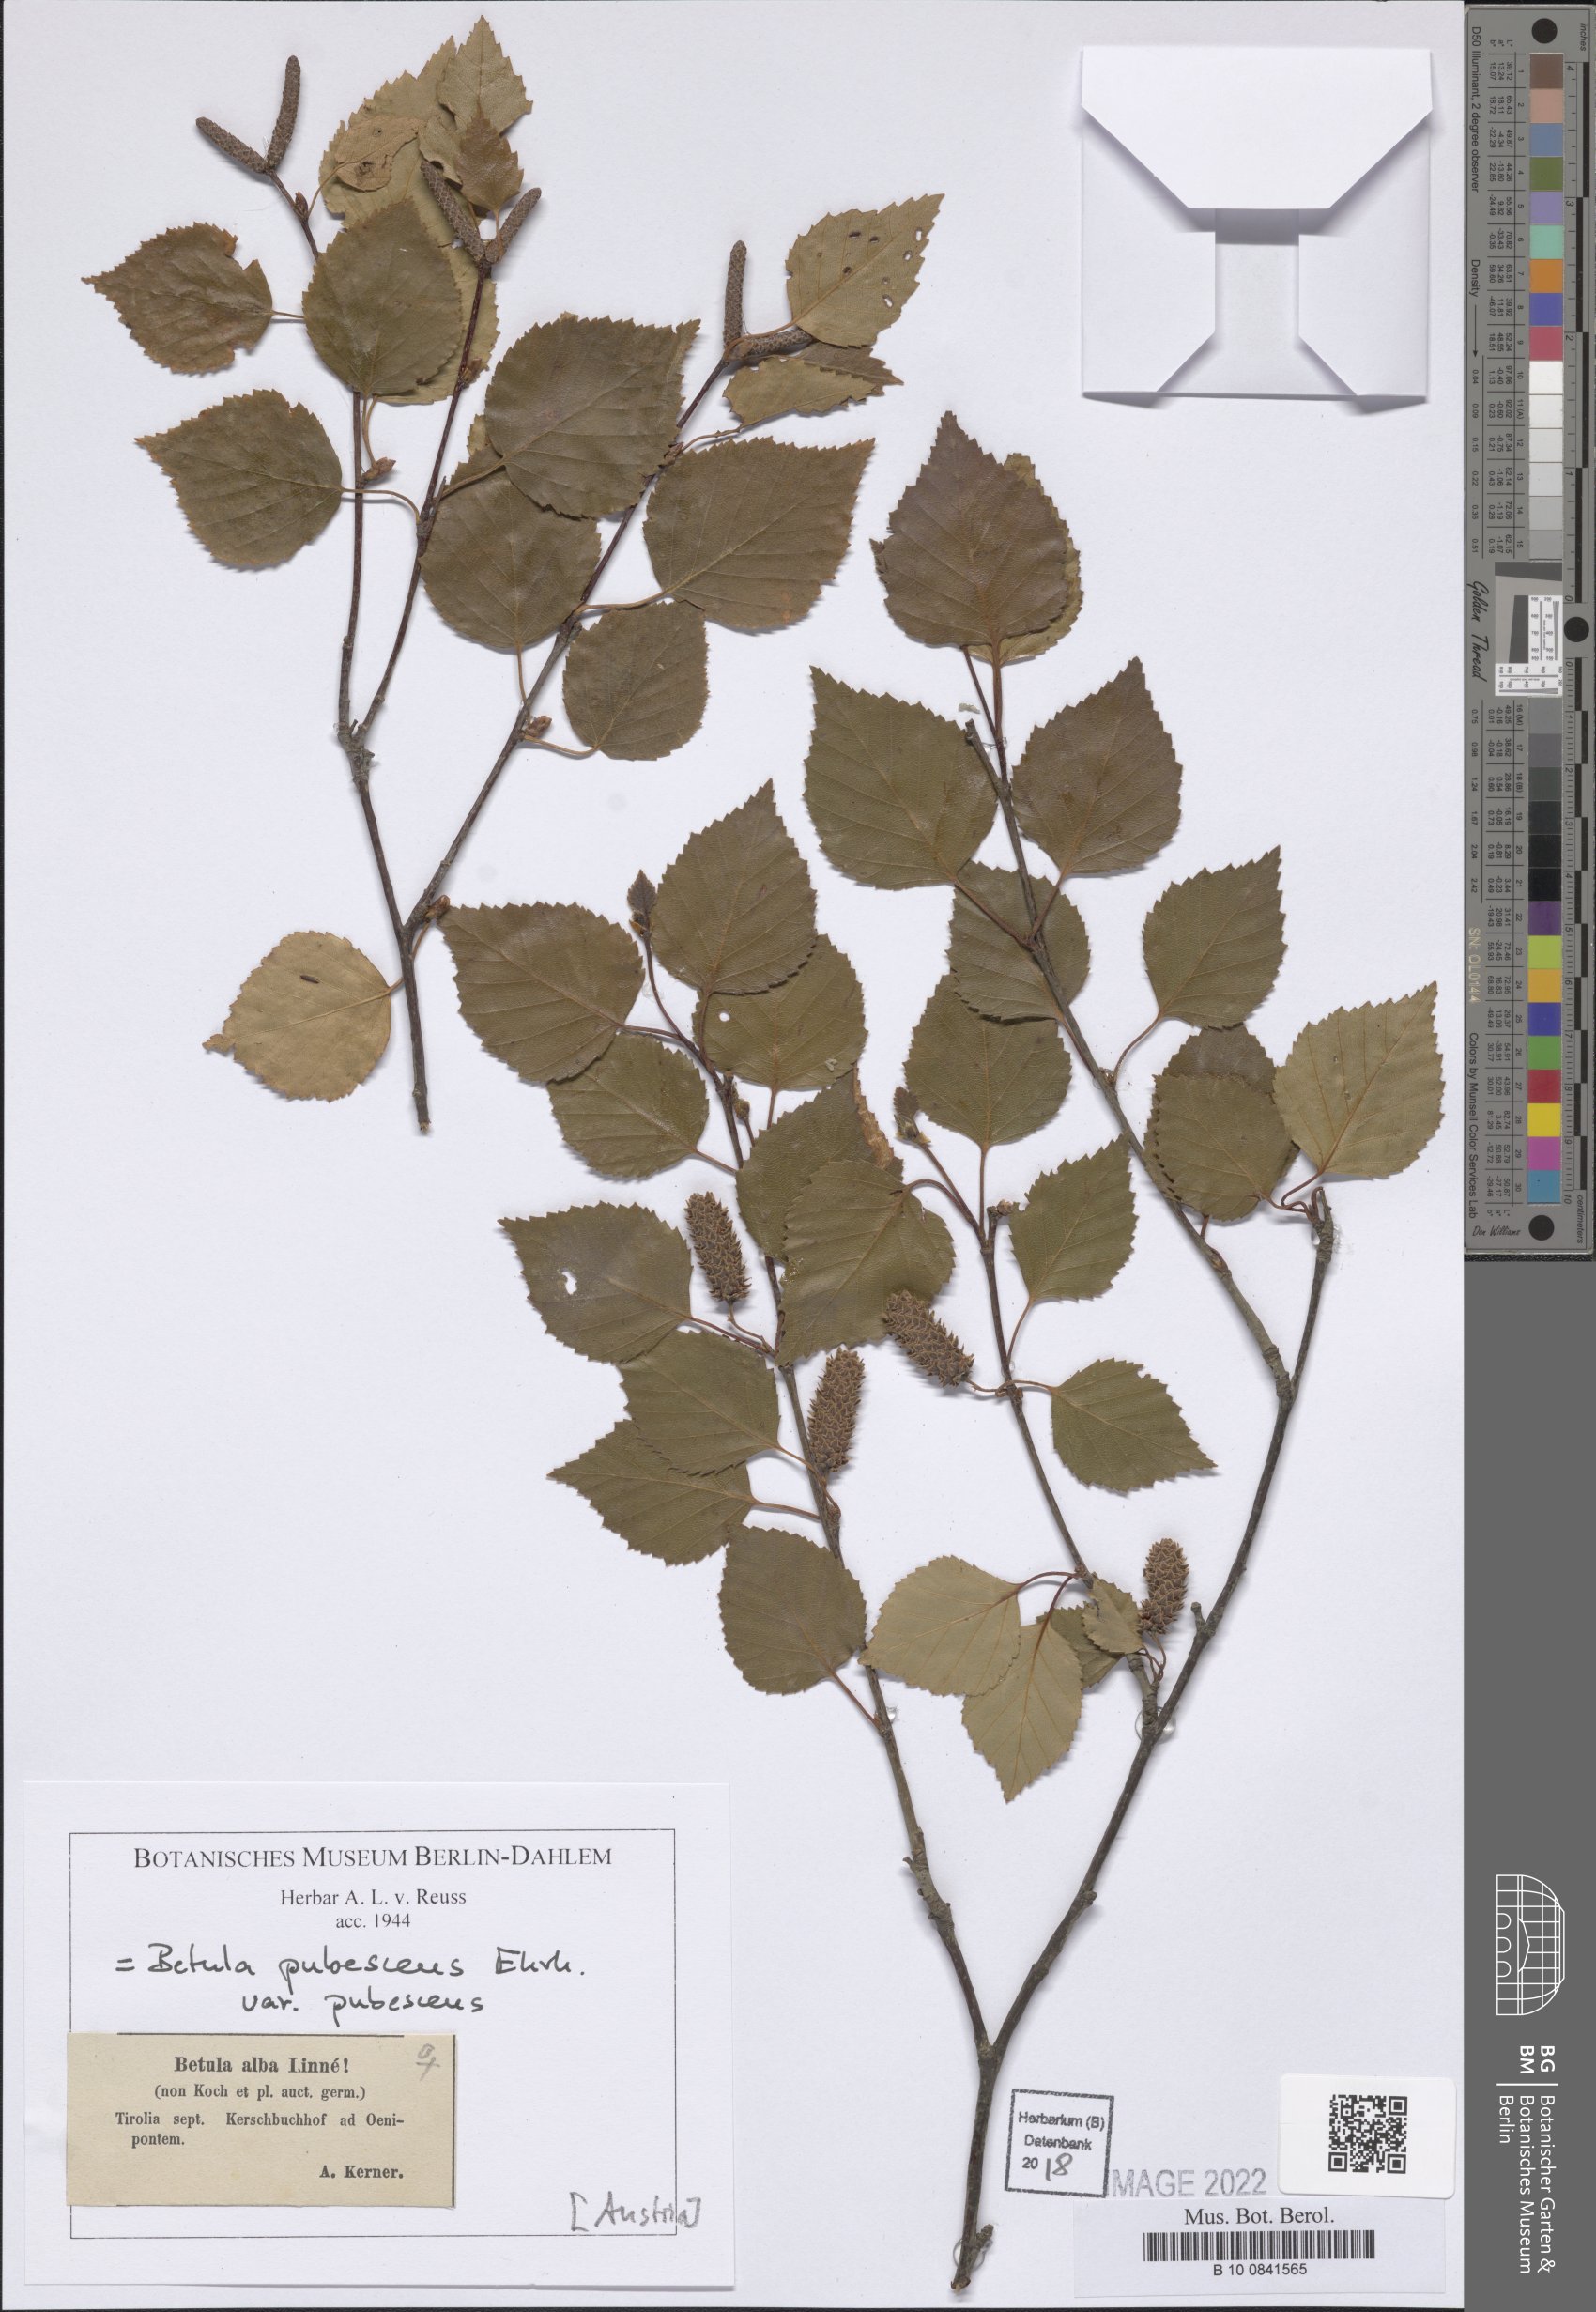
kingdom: Plantae
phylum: Tracheophyta
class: Magnoliopsida
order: Fagales
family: Betulaceae
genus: Betula
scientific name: Betula pubescens
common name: Downy birch
